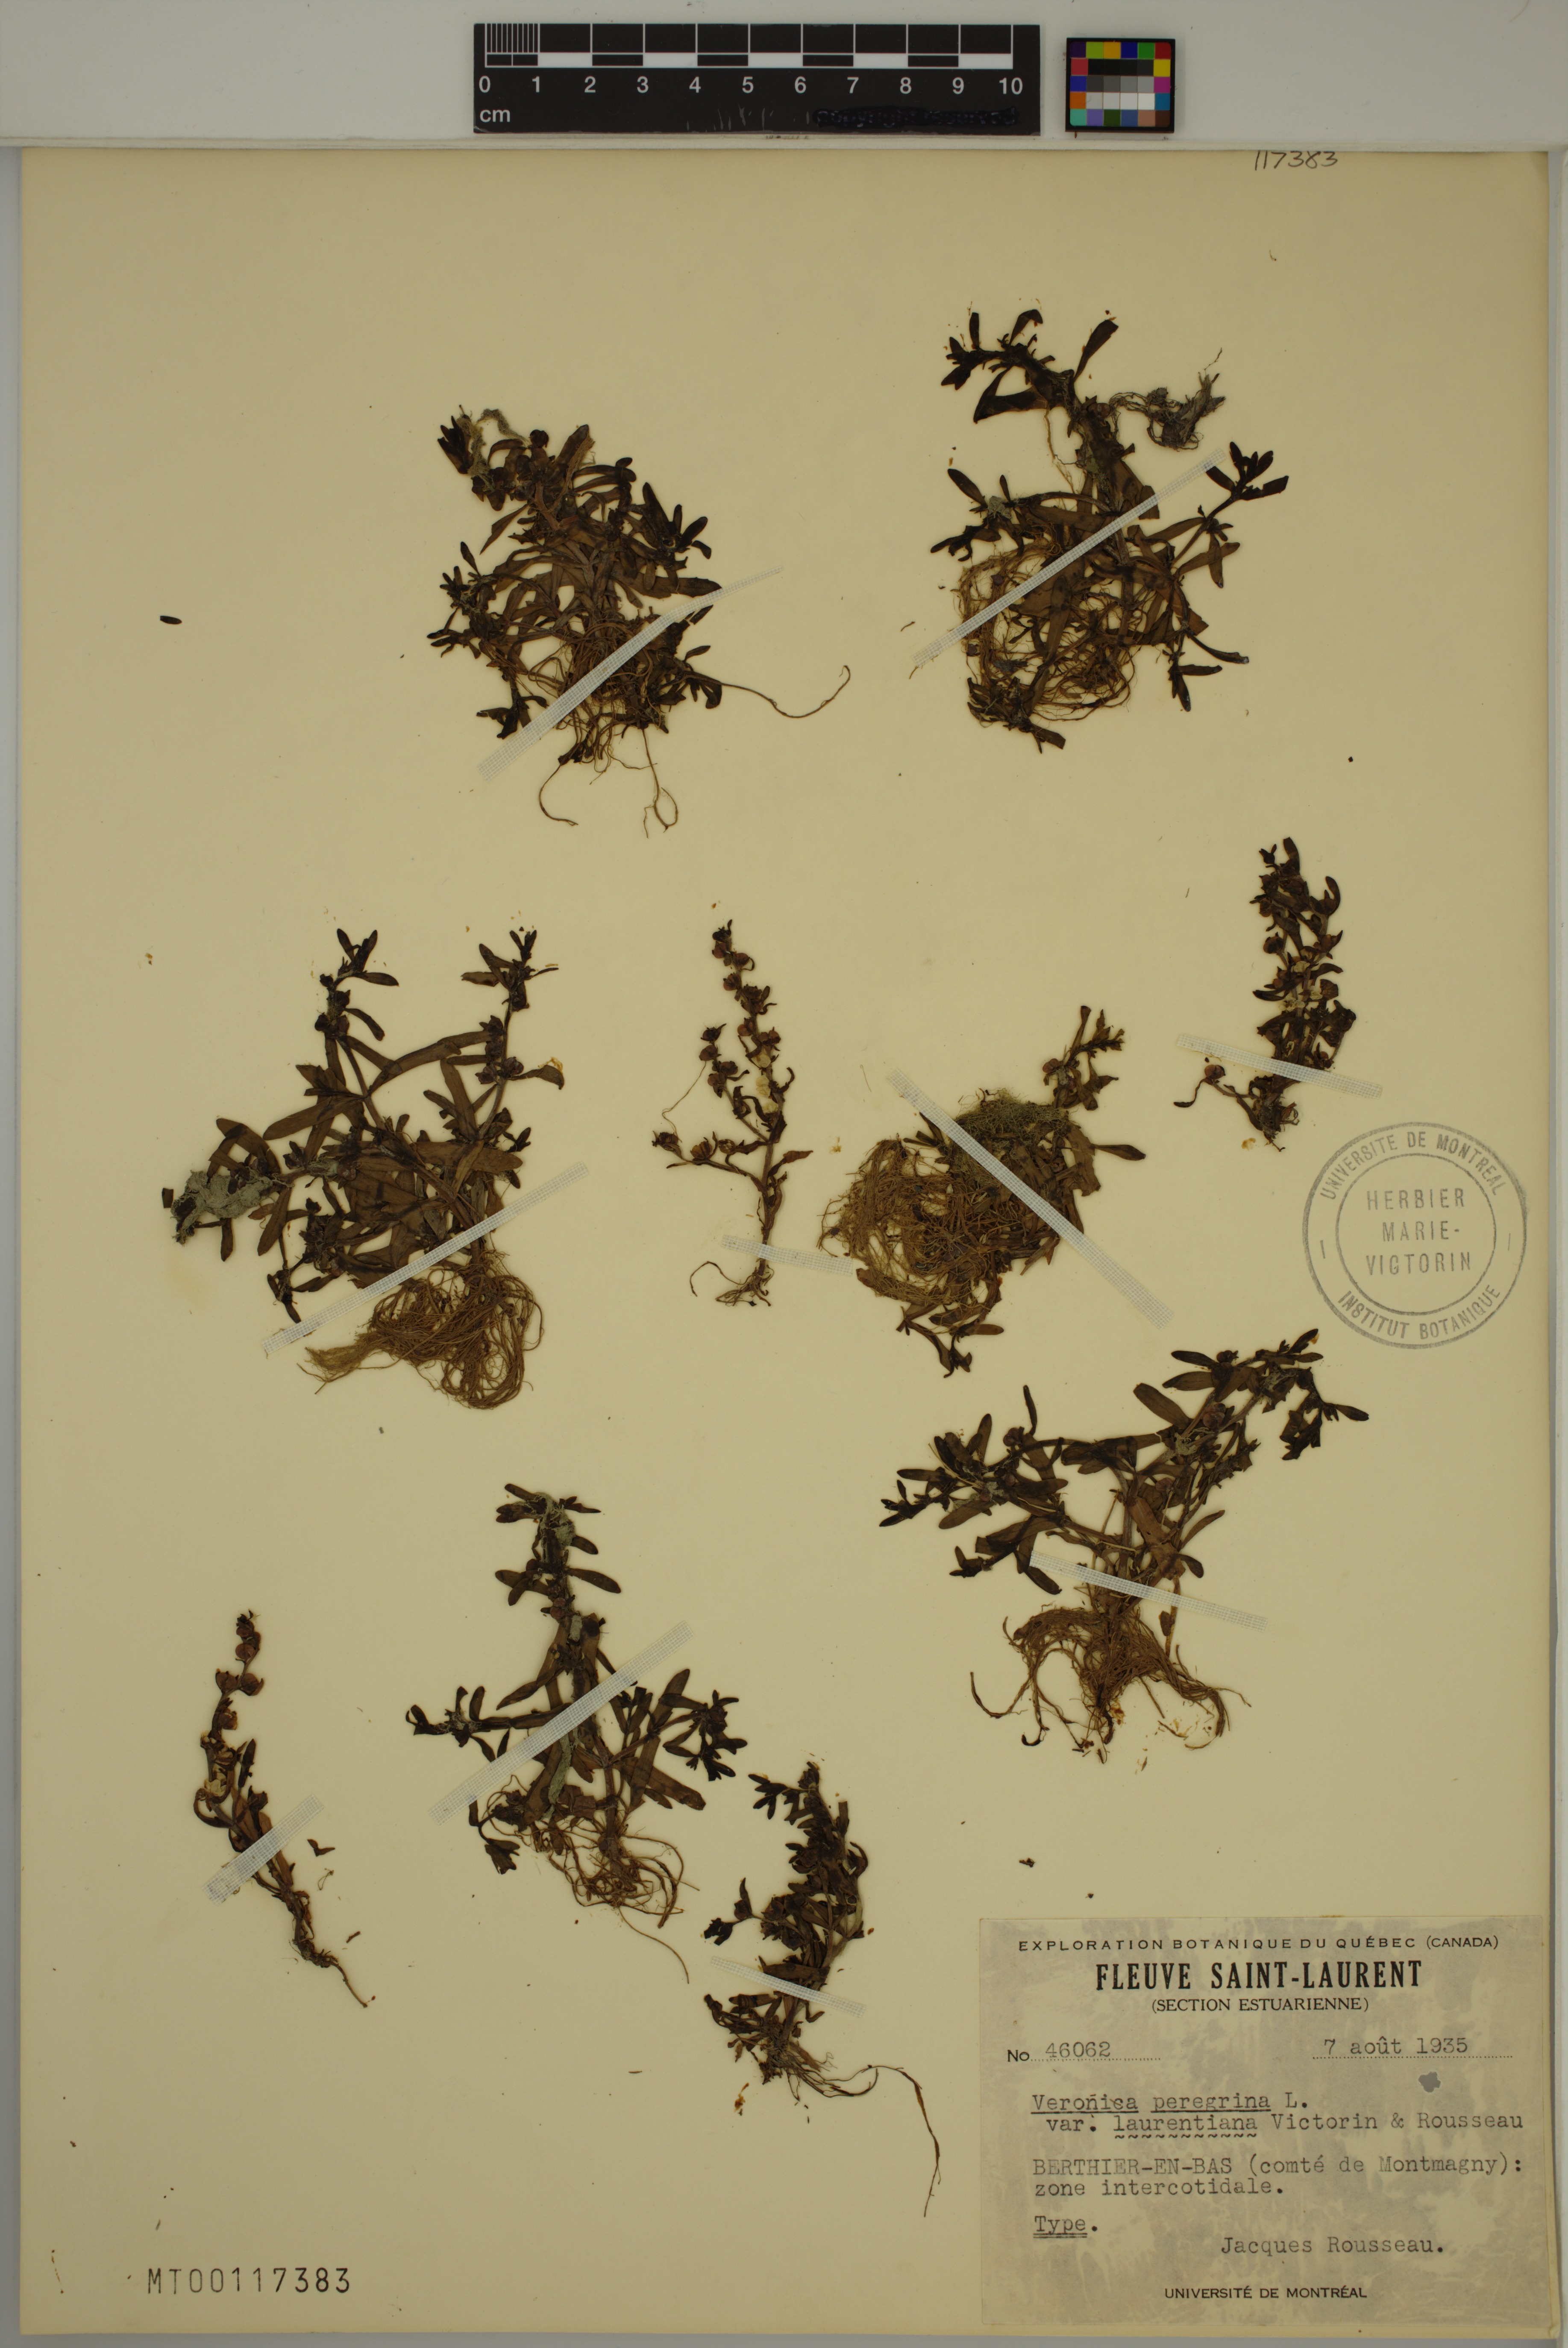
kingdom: Plantae
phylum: Tracheophyta
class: Magnoliopsida
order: Lamiales
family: Plantaginaceae
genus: Veronica
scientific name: Veronica peregrina
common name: Neckweed
